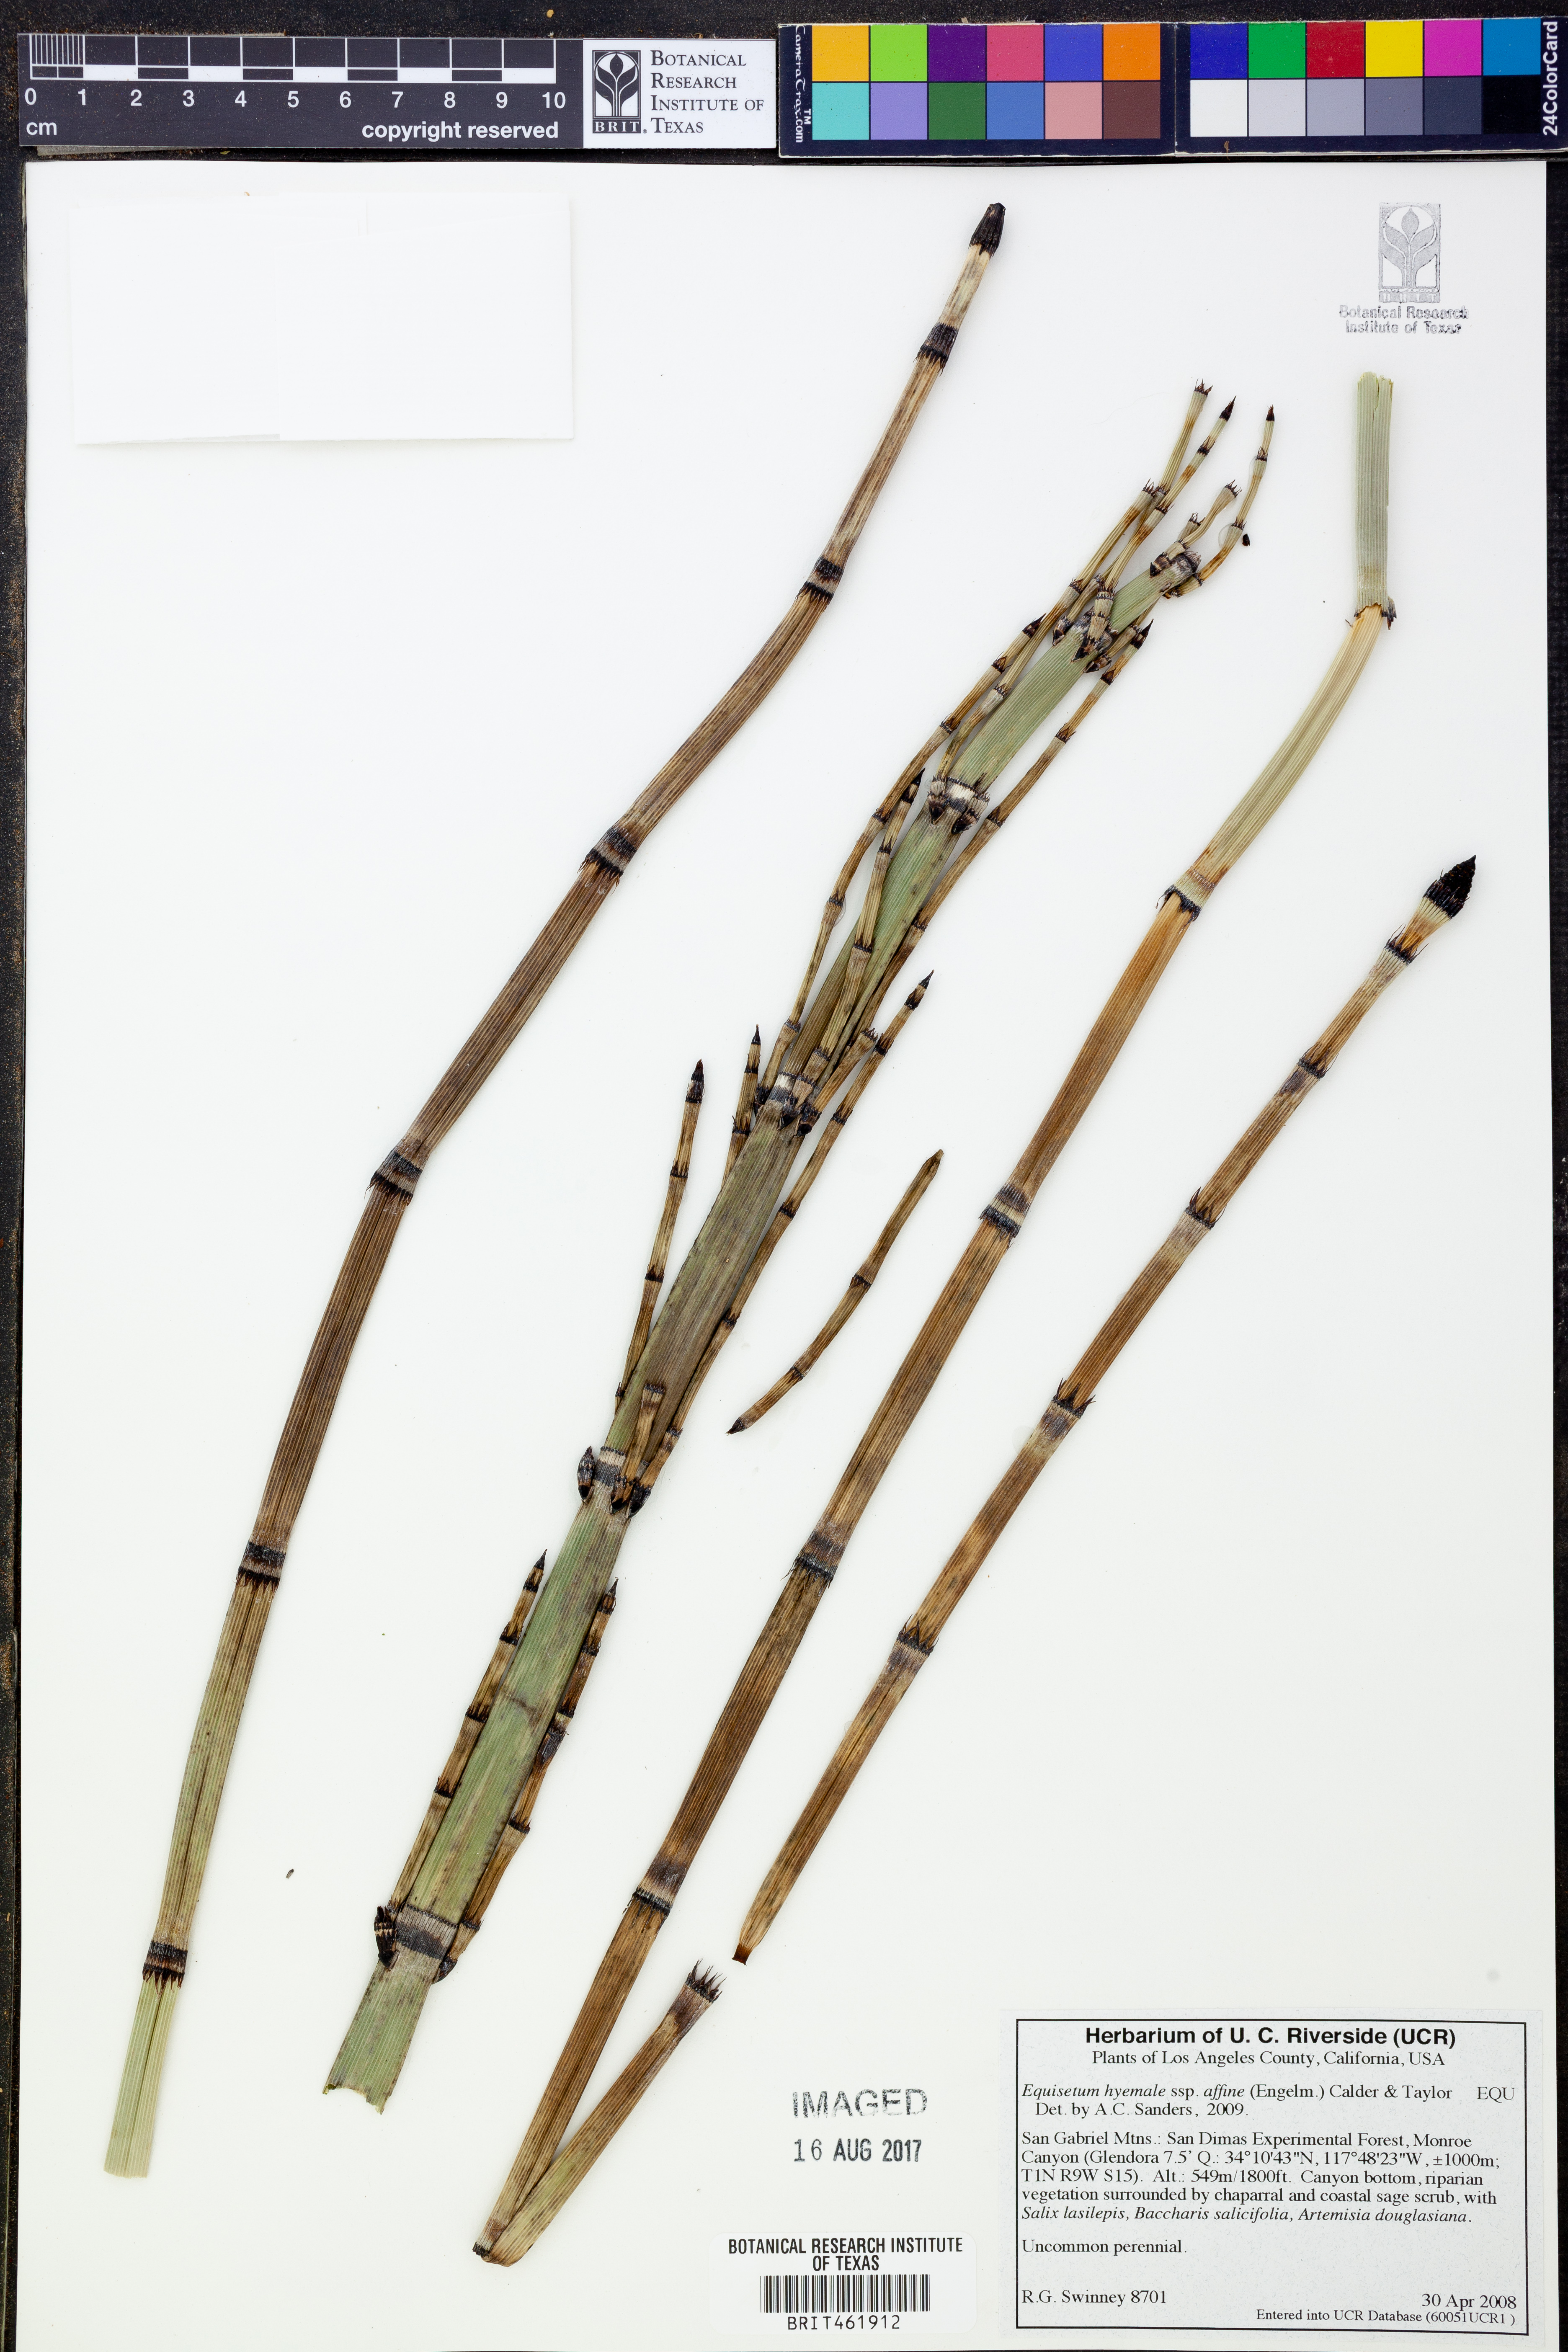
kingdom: Plantae
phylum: Tracheophyta
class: Polypodiopsida
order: Equisetales
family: Equisetaceae
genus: Equisetum
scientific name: Equisetum praealtum
